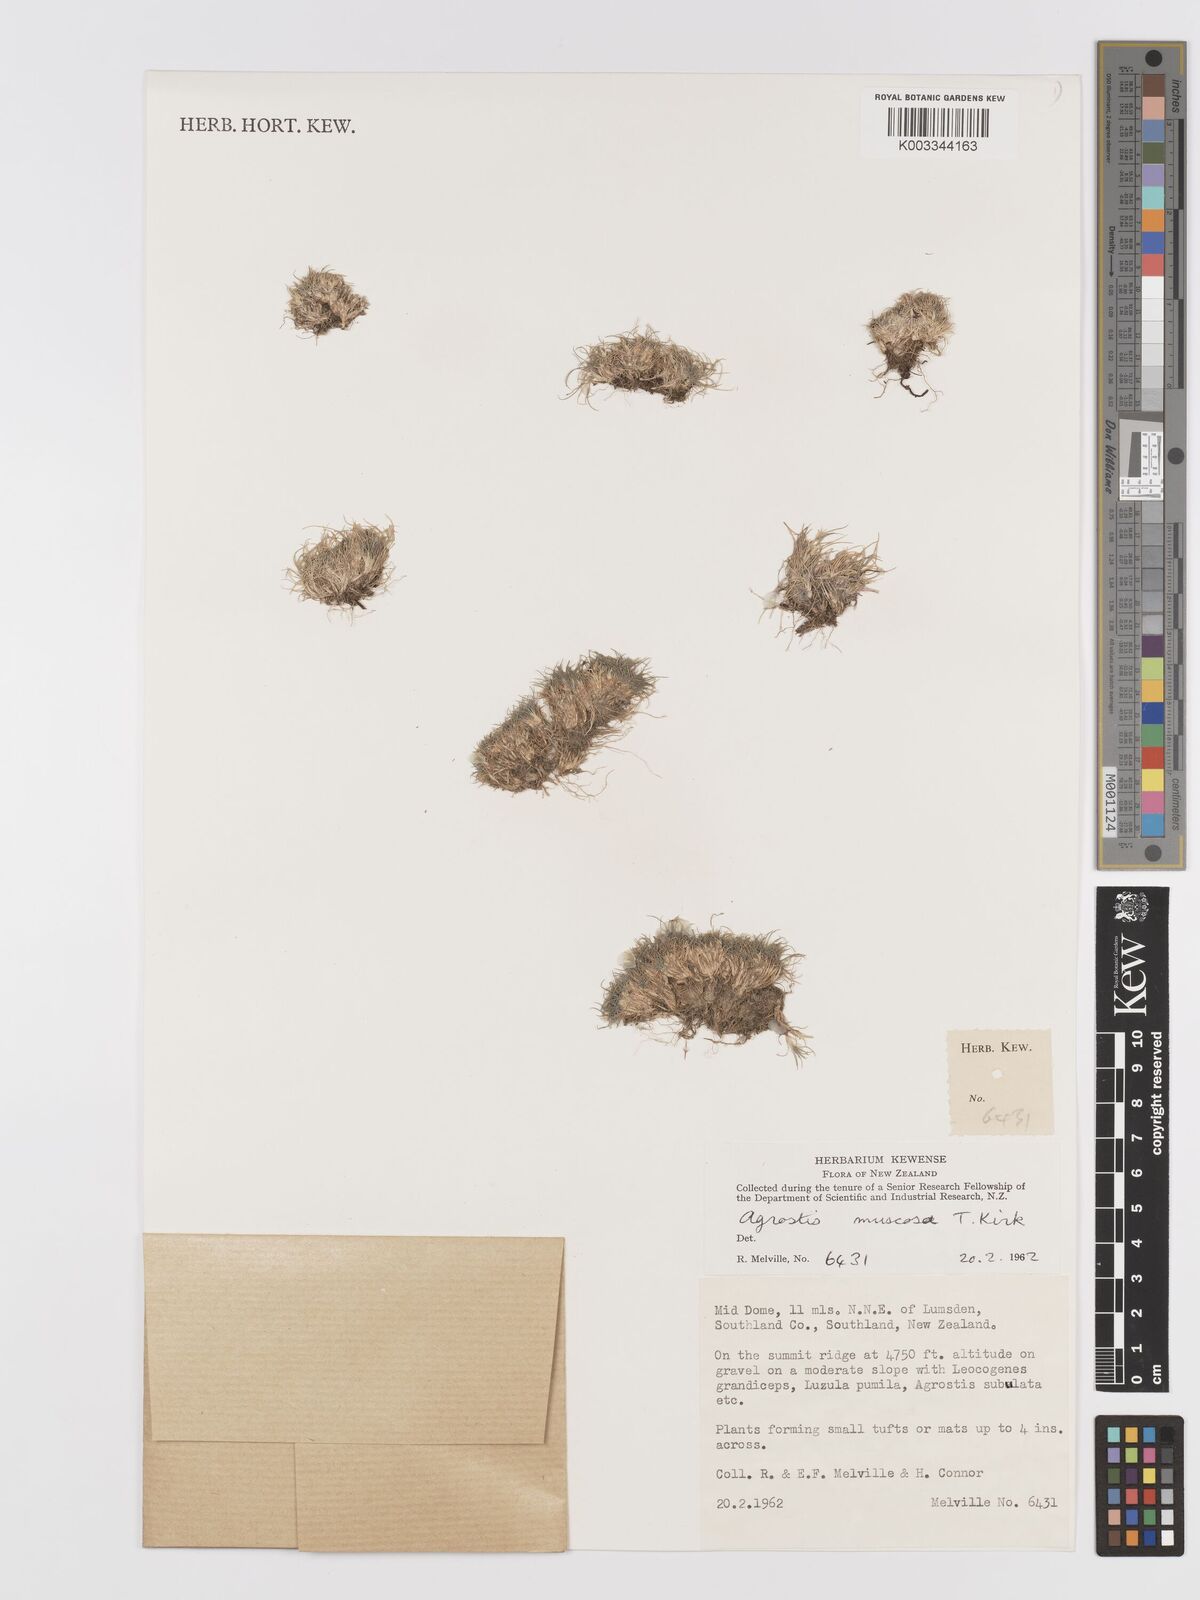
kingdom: Plantae
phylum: Tracheophyta
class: Liliopsida
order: Poales
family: Poaceae
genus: Agrostis
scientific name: Agrostis muscosa
